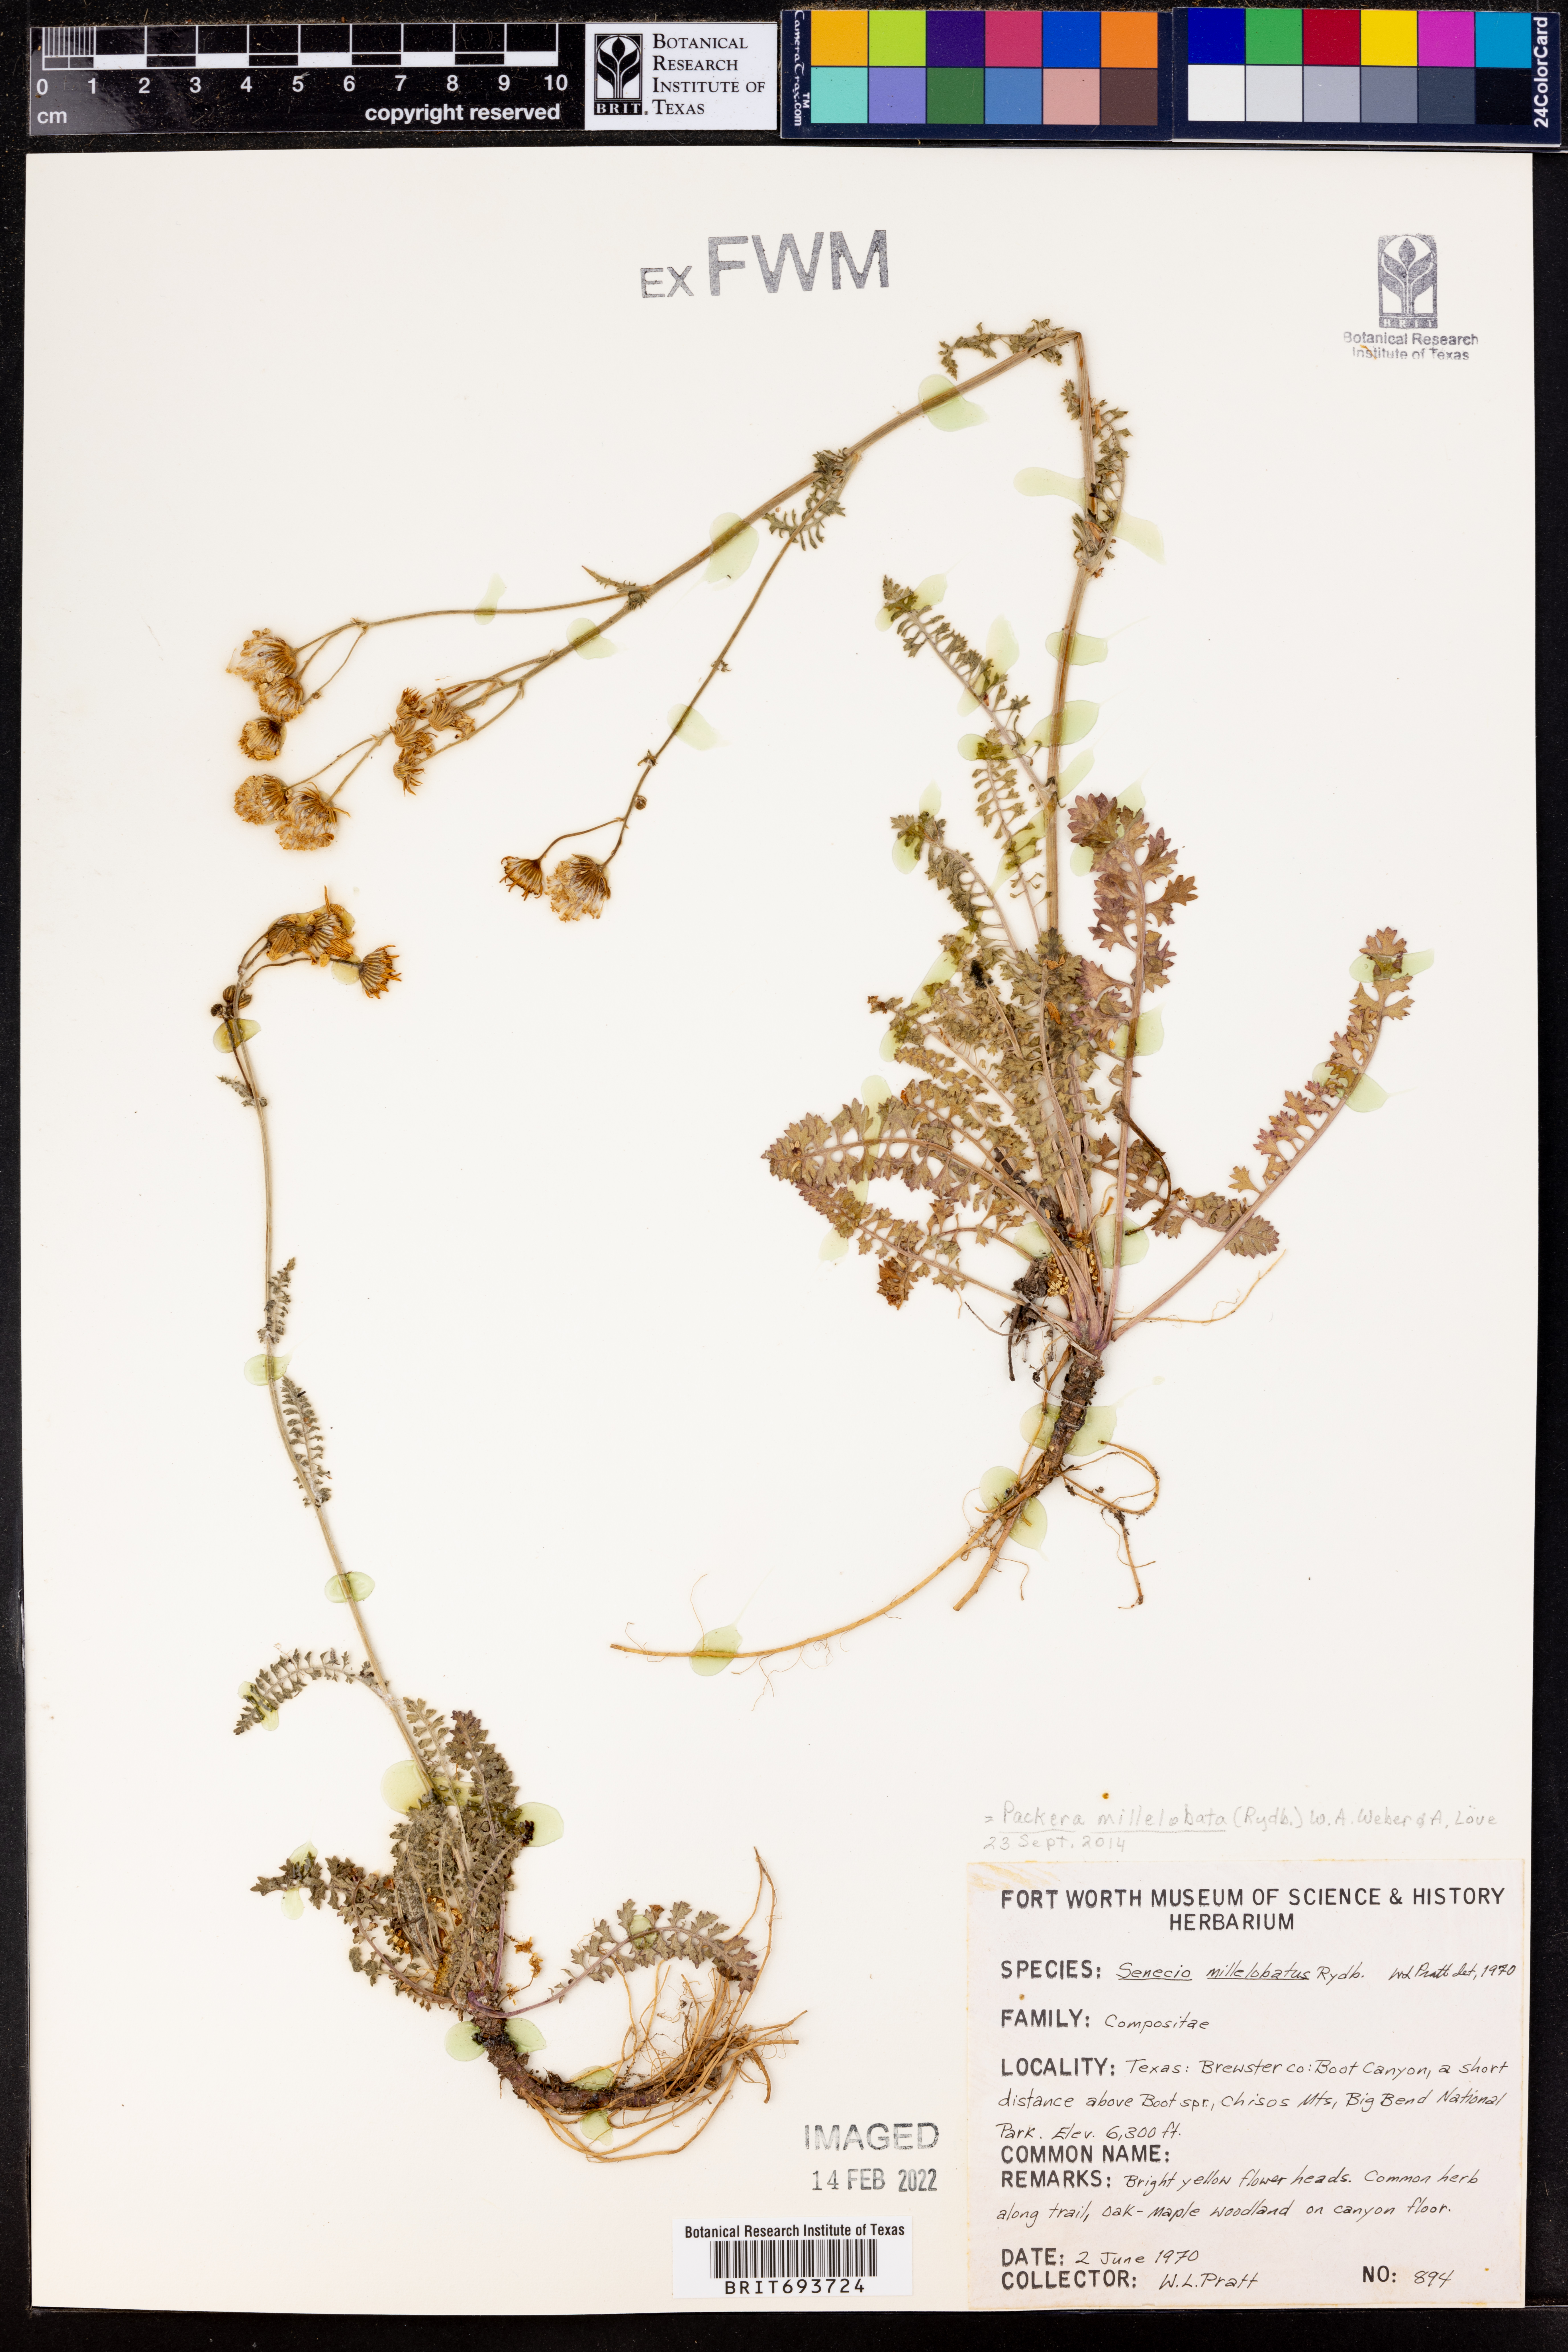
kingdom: Plantae
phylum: Tracheophyta
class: Magnoliopsida
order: Asterales
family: Asteraceae
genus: Packera
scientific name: Packera millelobata
